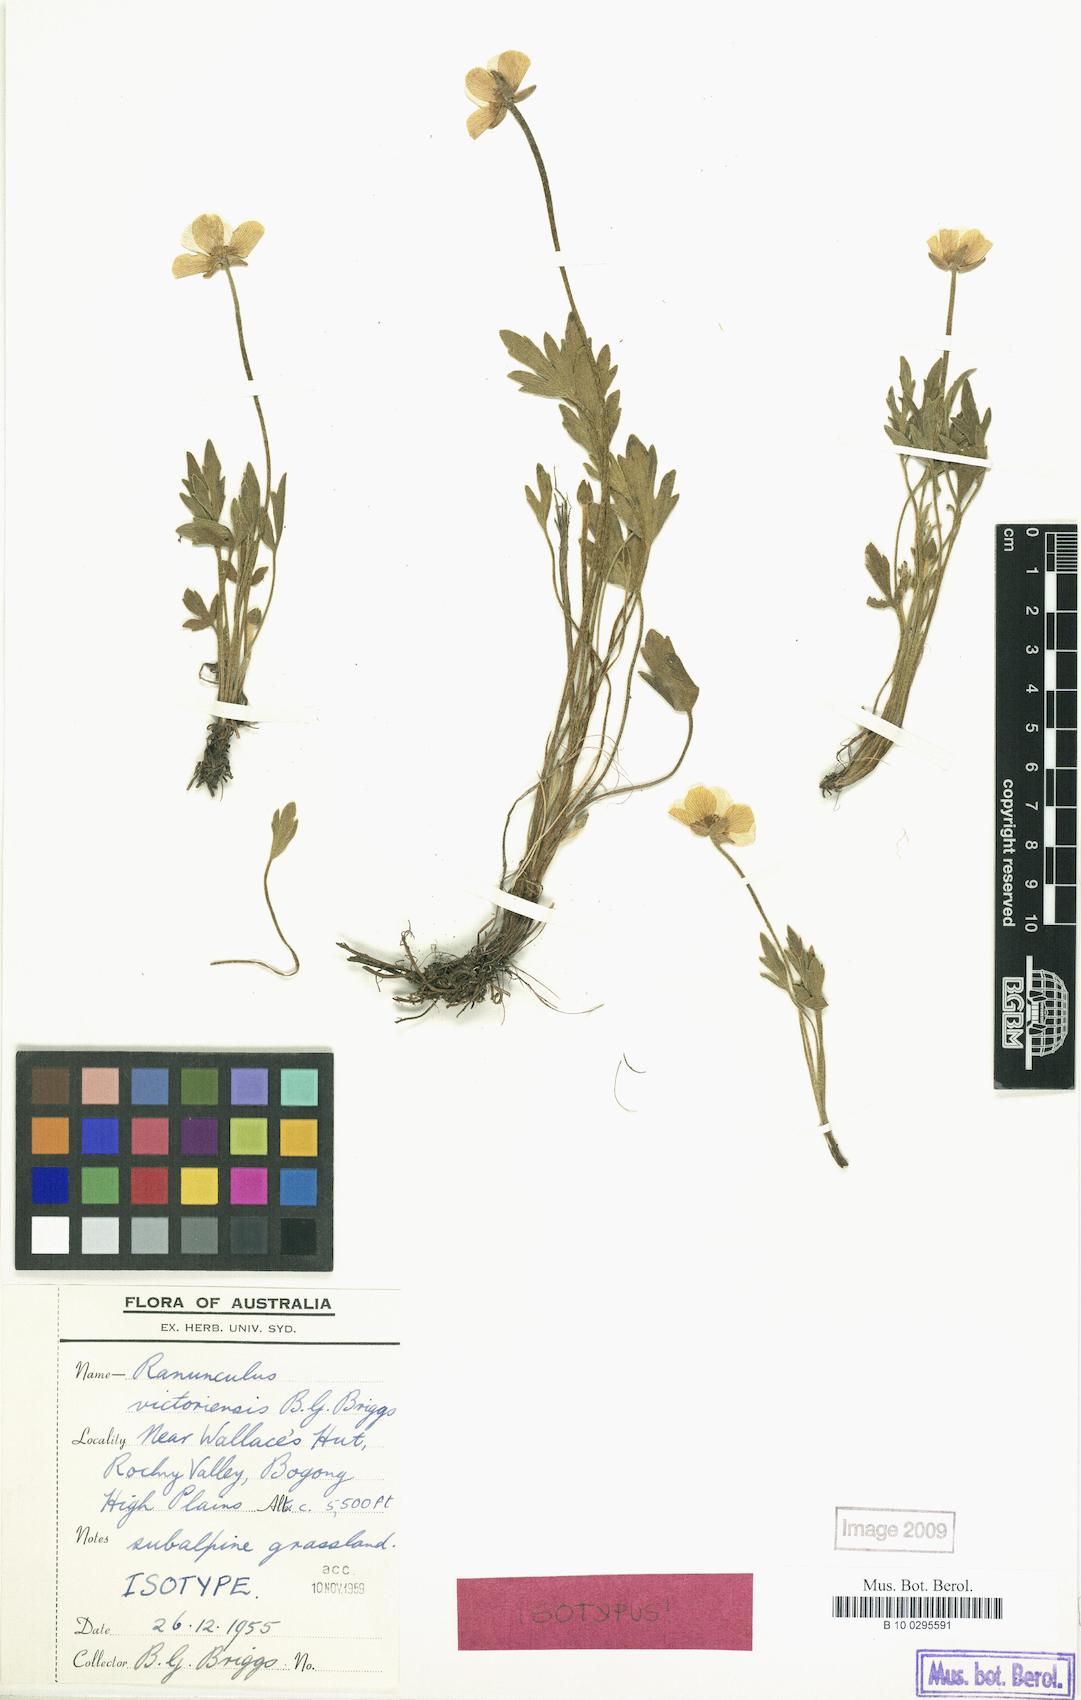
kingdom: Plantae
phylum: Tracheophyta
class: Magnoliopsida
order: Ranunculales
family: Ranunculaceae
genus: Ranunculus
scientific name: Ranunculus victoriensis
